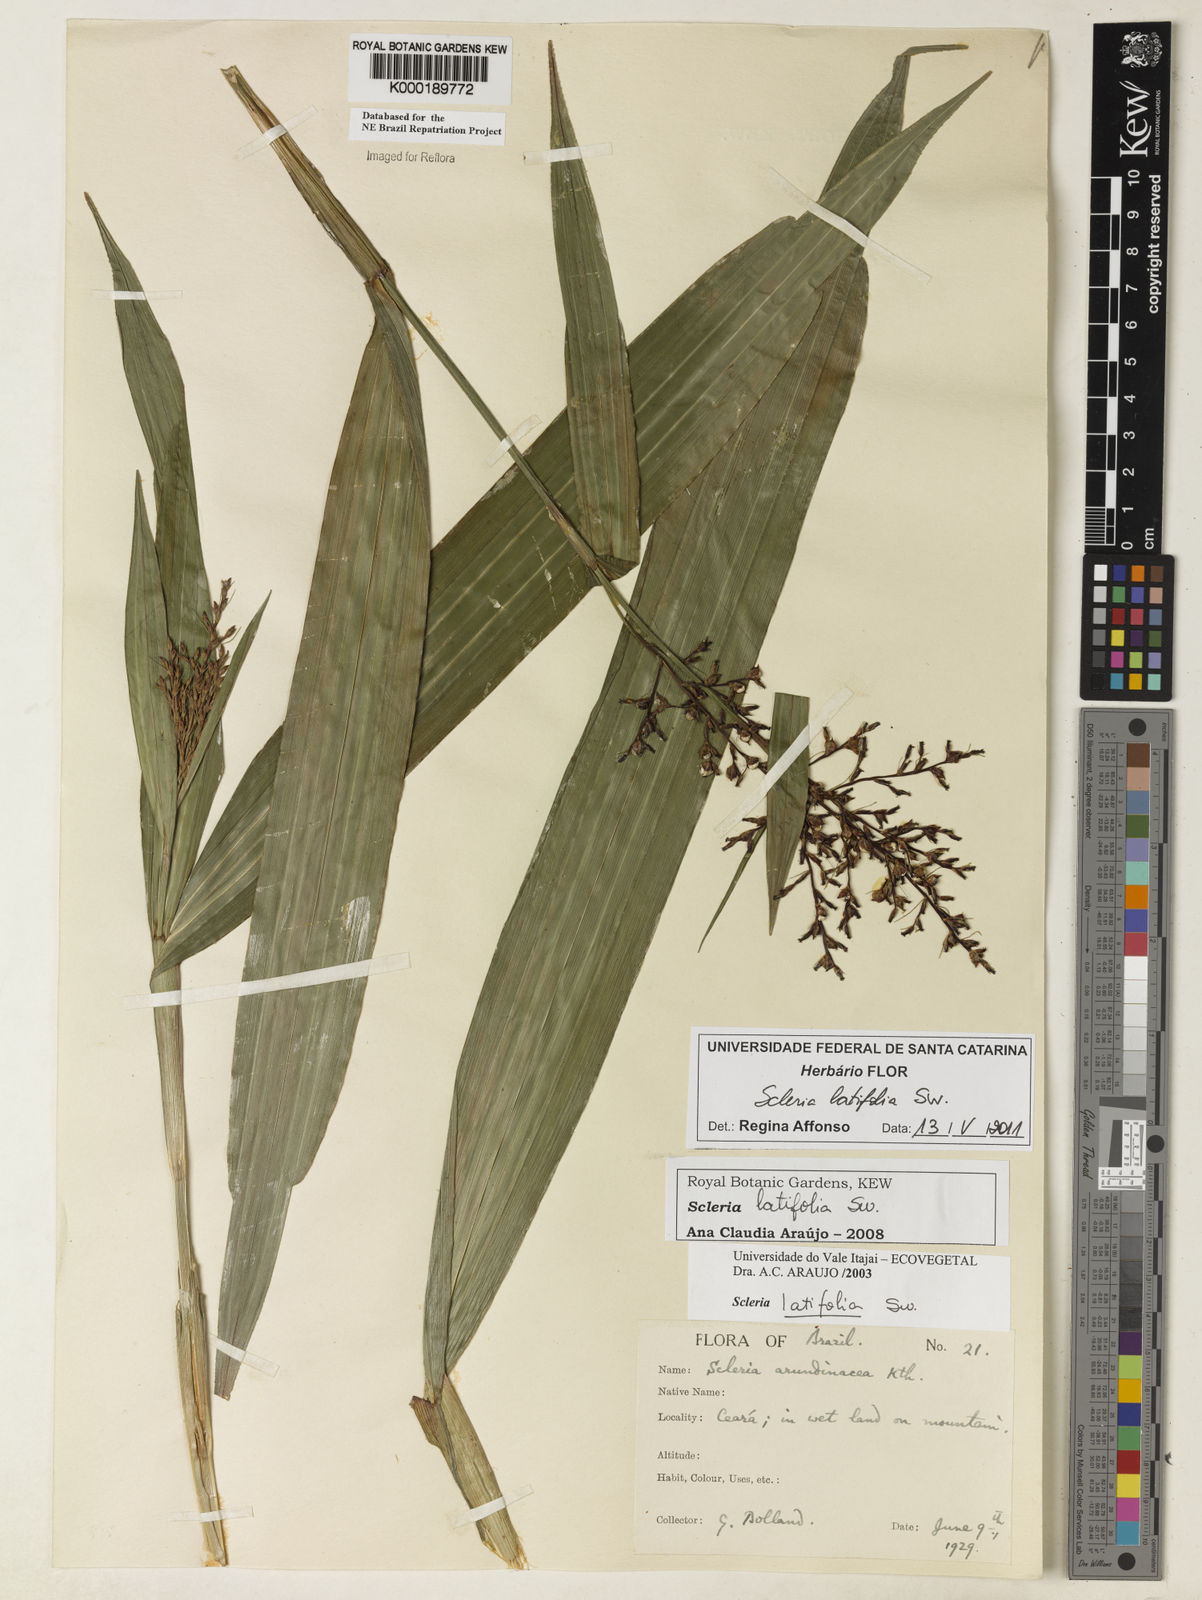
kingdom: Plantae
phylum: Tracheophyta
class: Liliopsida
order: Poales
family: Cyperaceae
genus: Scleria
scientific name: Scleria latifolia
